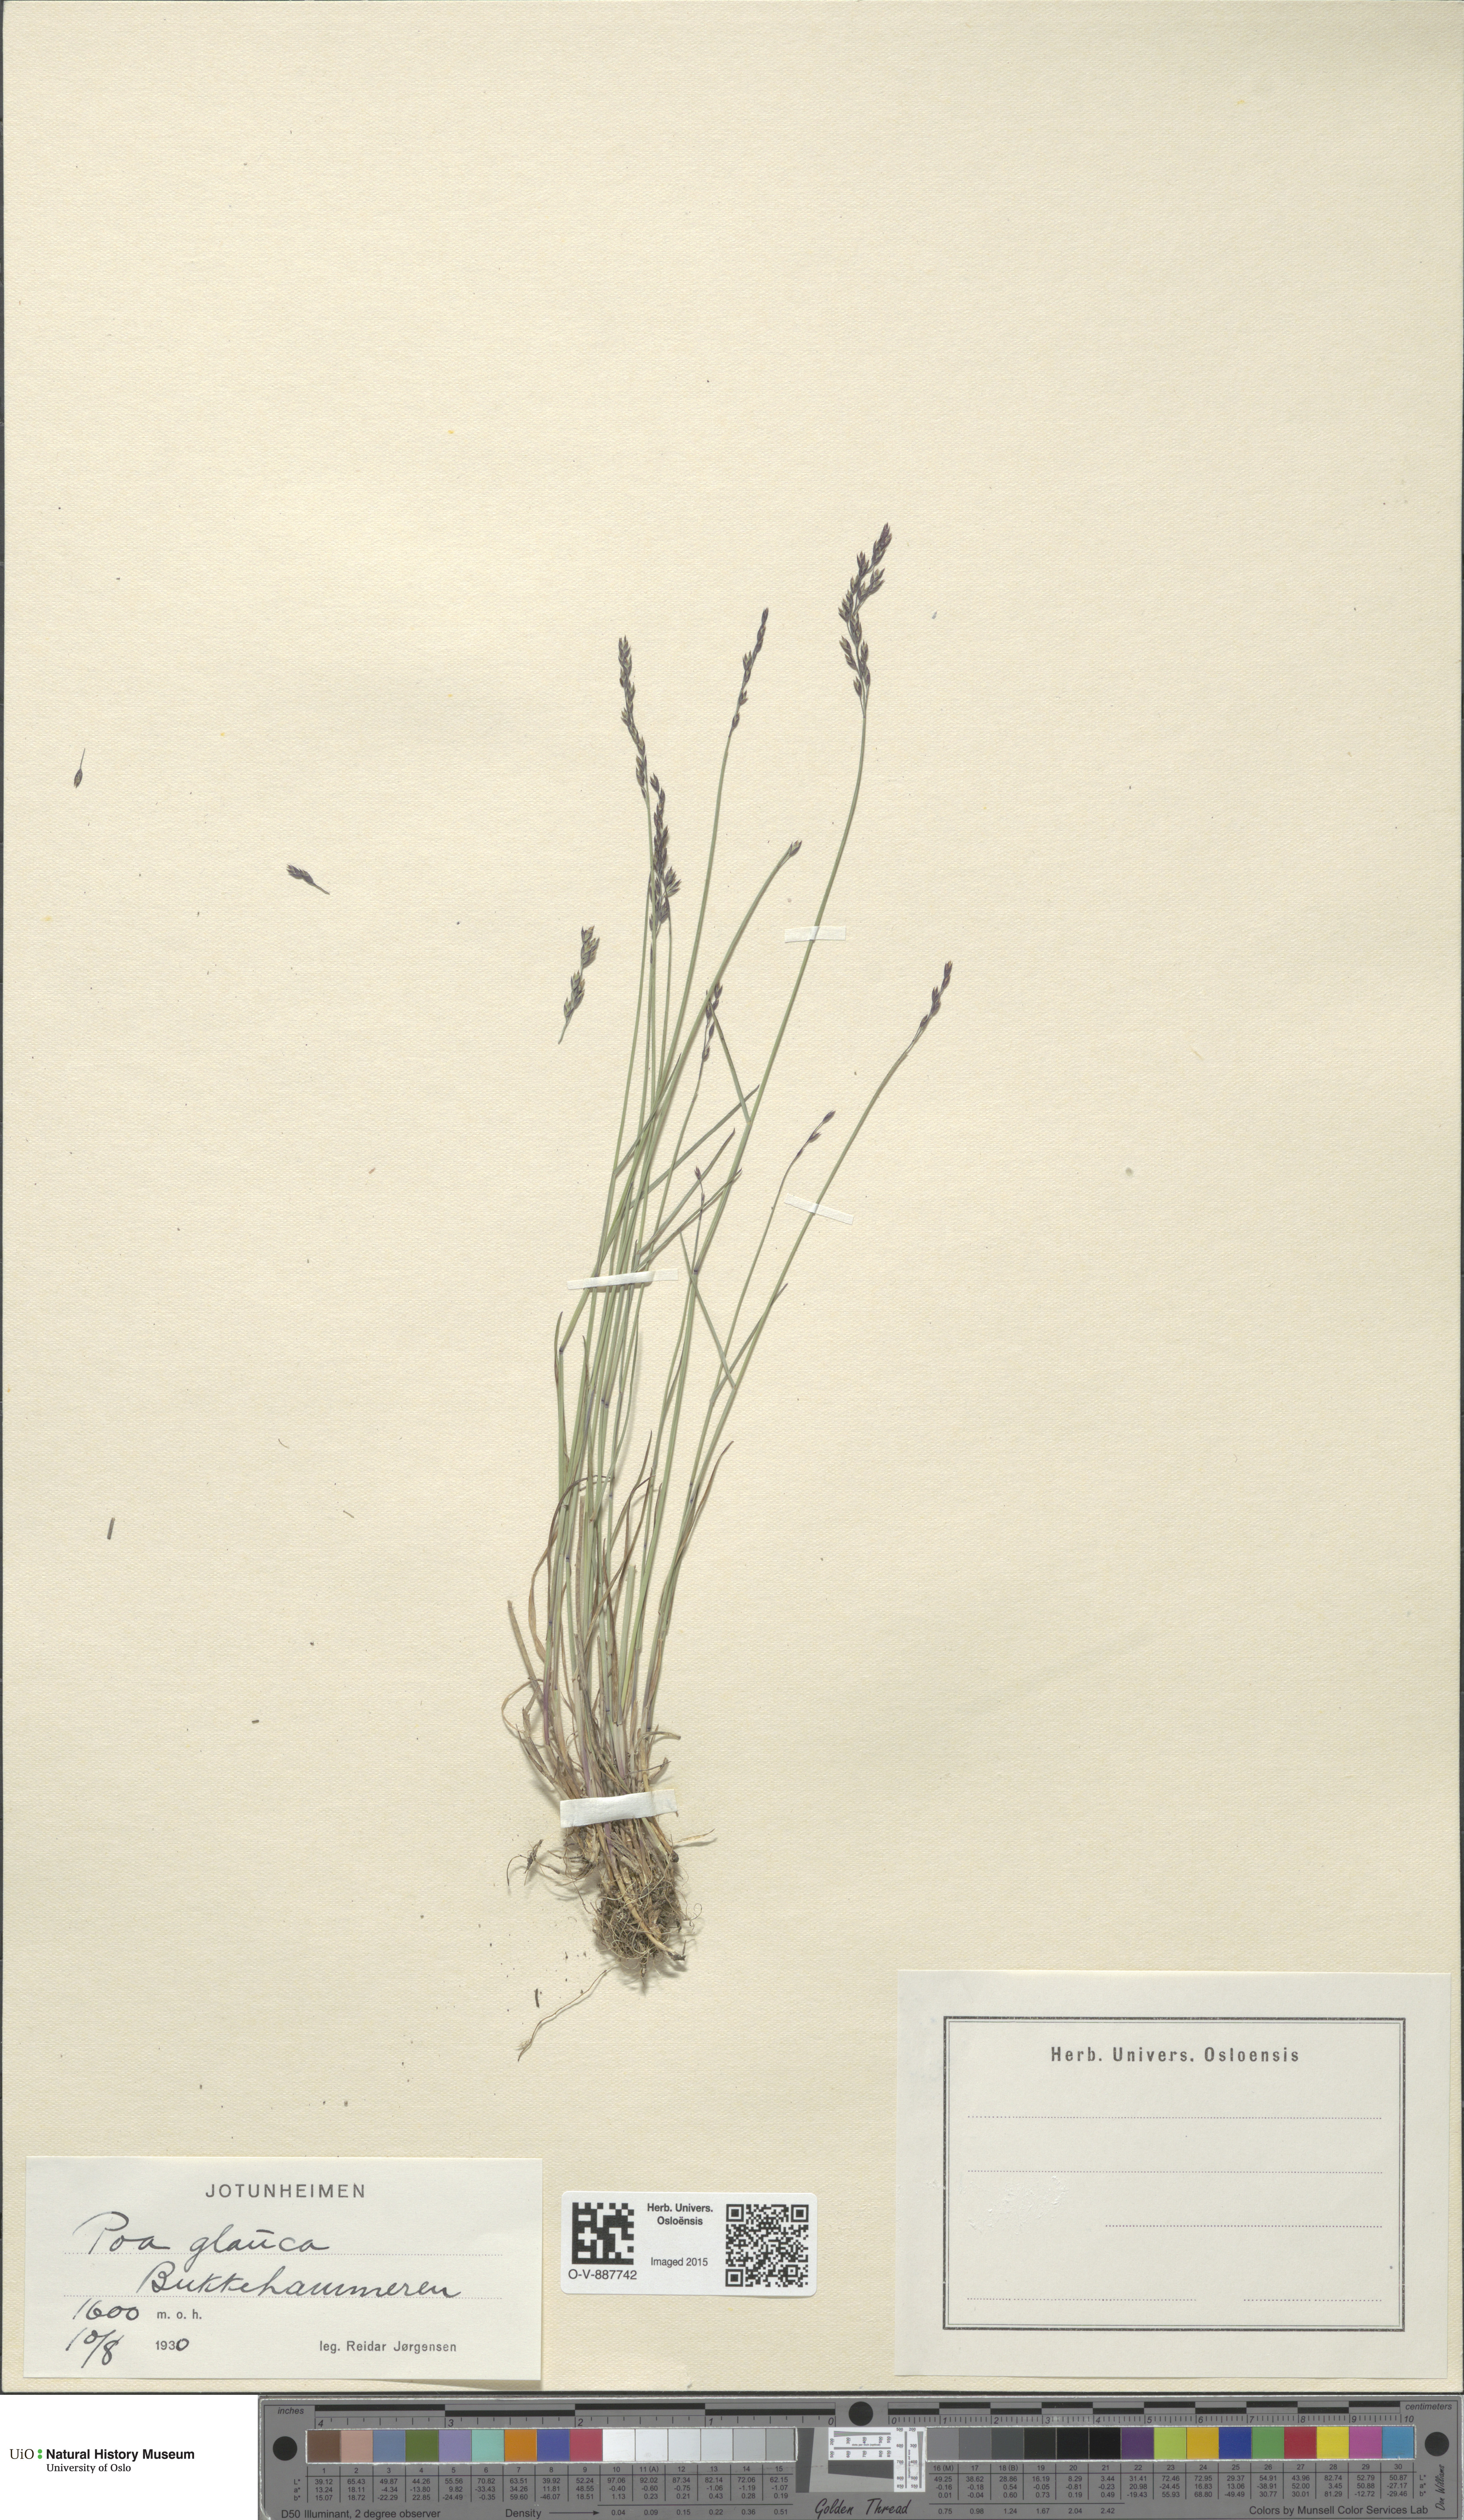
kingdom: Plantae
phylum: Tracheophyta
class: Liliopsida
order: Poales
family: Poaceae
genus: Poa
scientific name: Poa glauca
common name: Glaucous bluegrass
